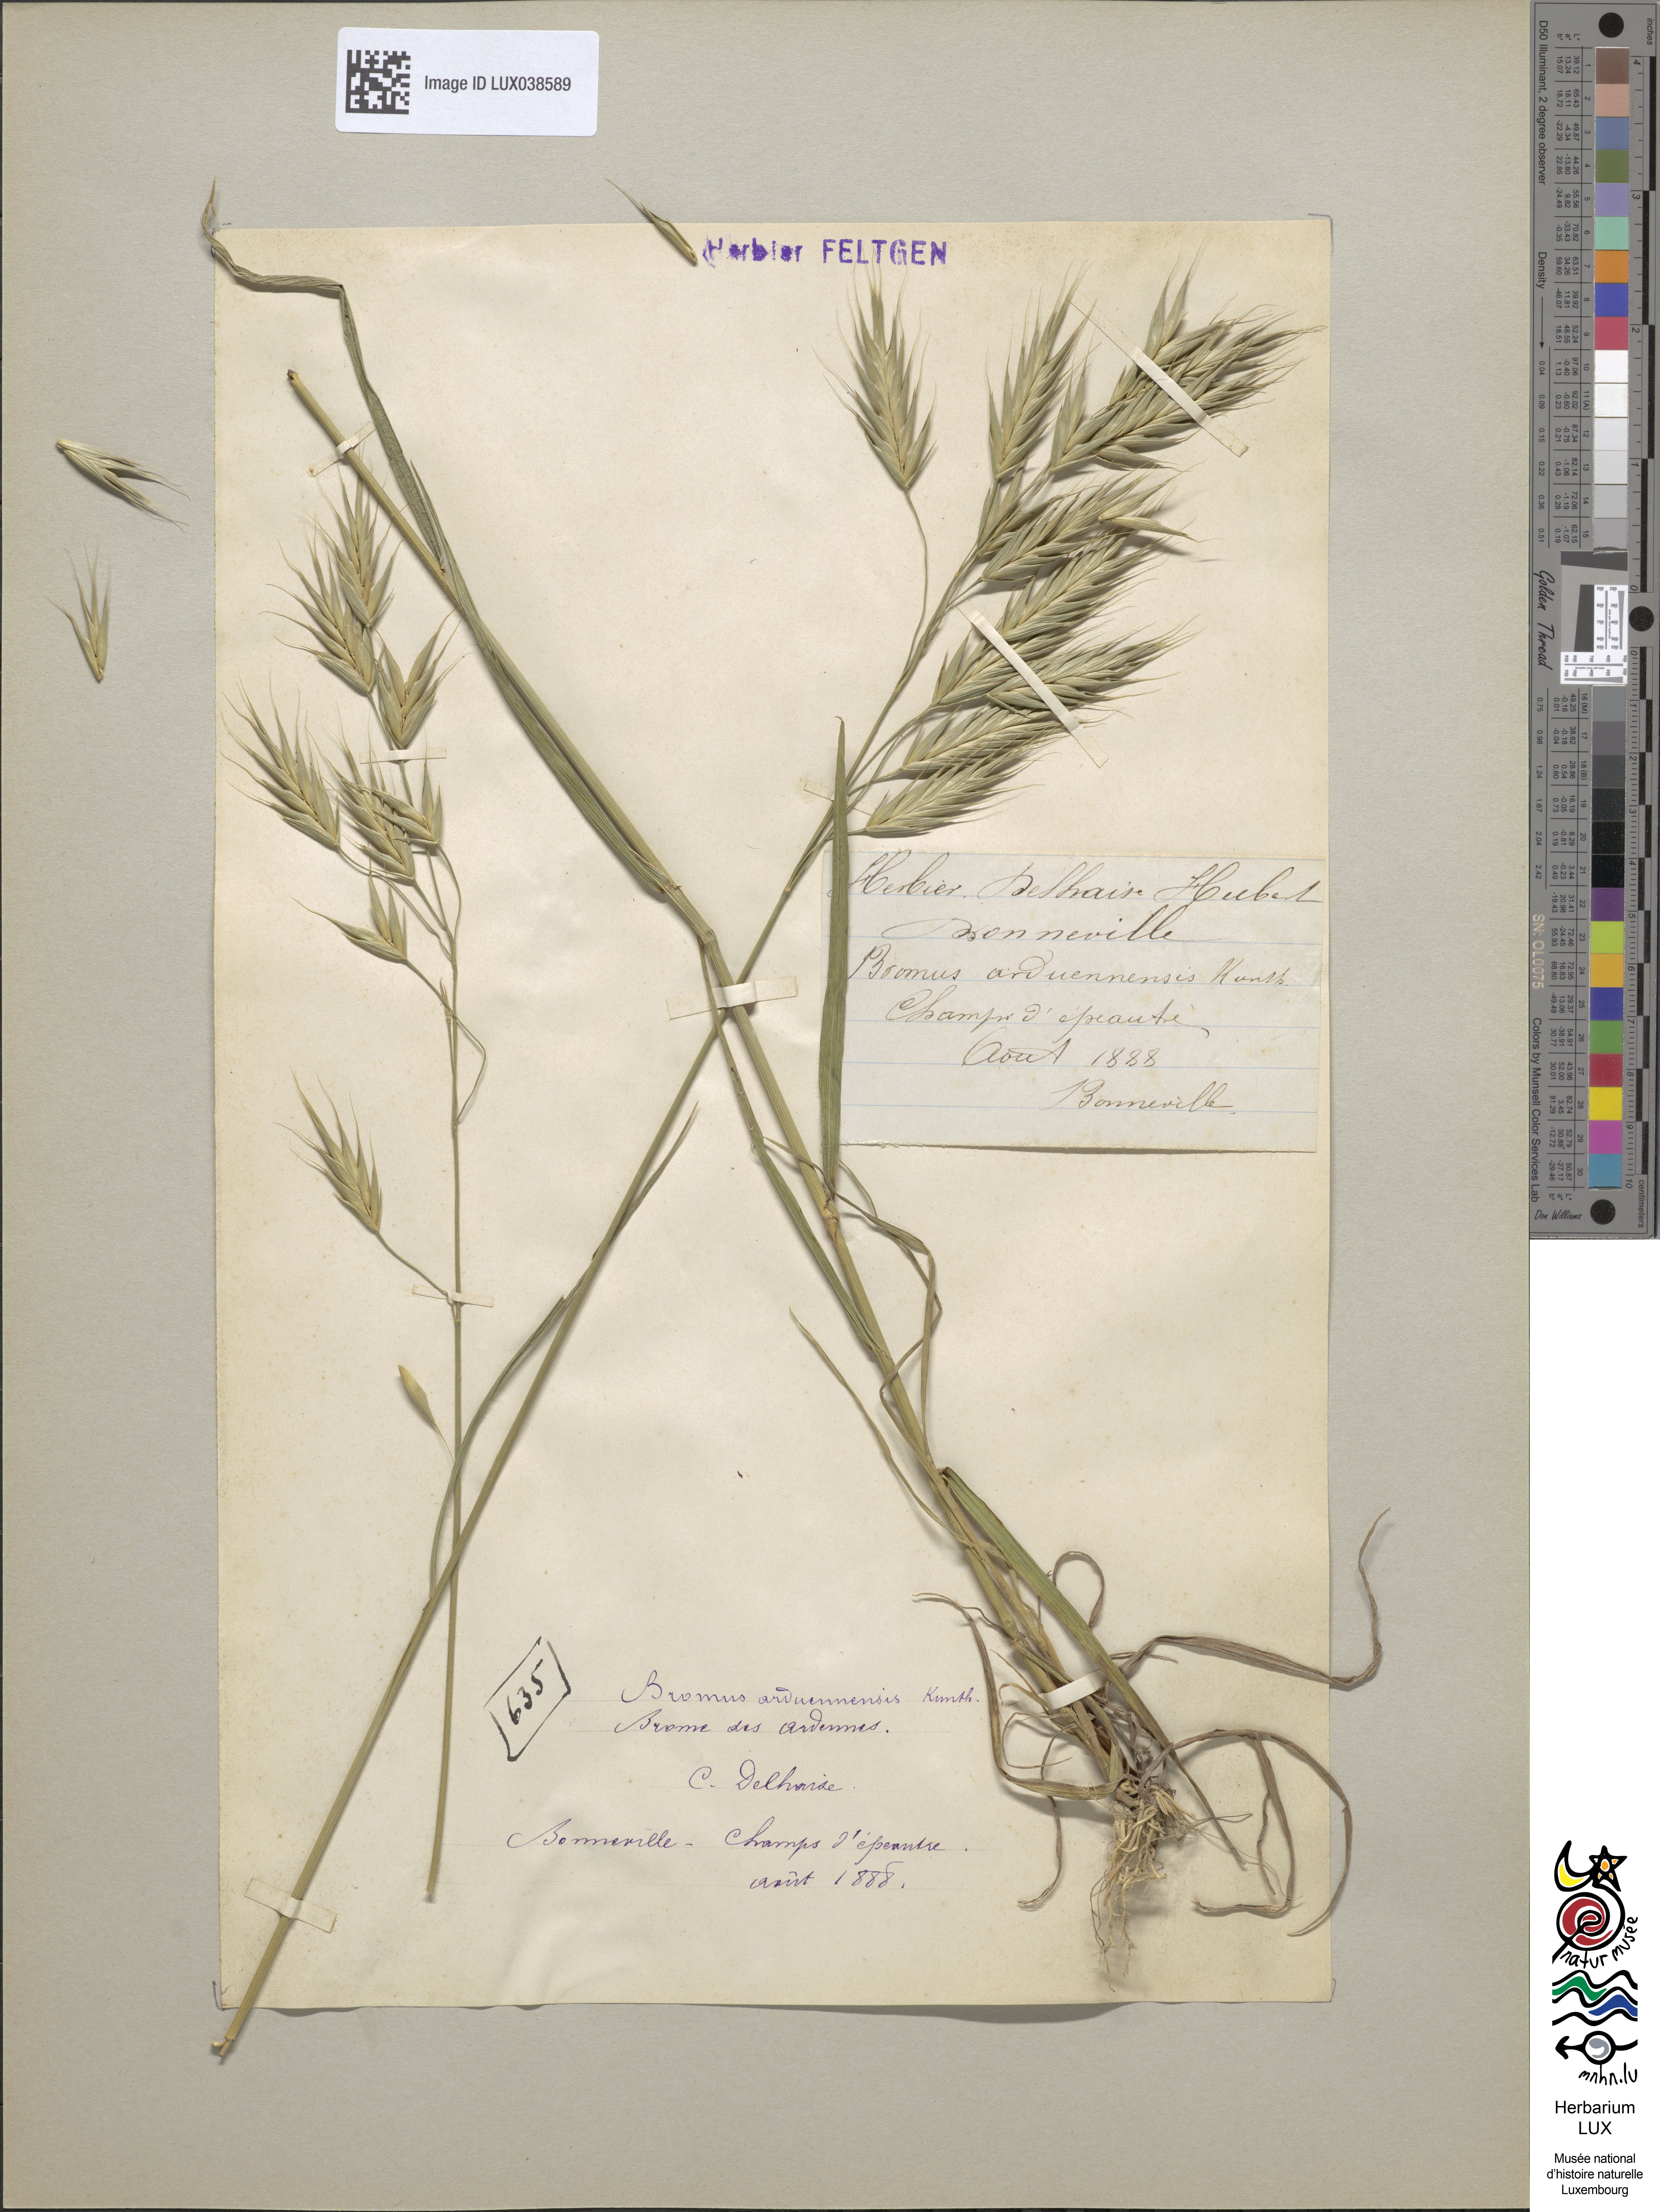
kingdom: Plantae
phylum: Tracheophyta
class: Liliopsida
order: Poales
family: Poaceae
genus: Bromus
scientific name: Bromus bromoideus
